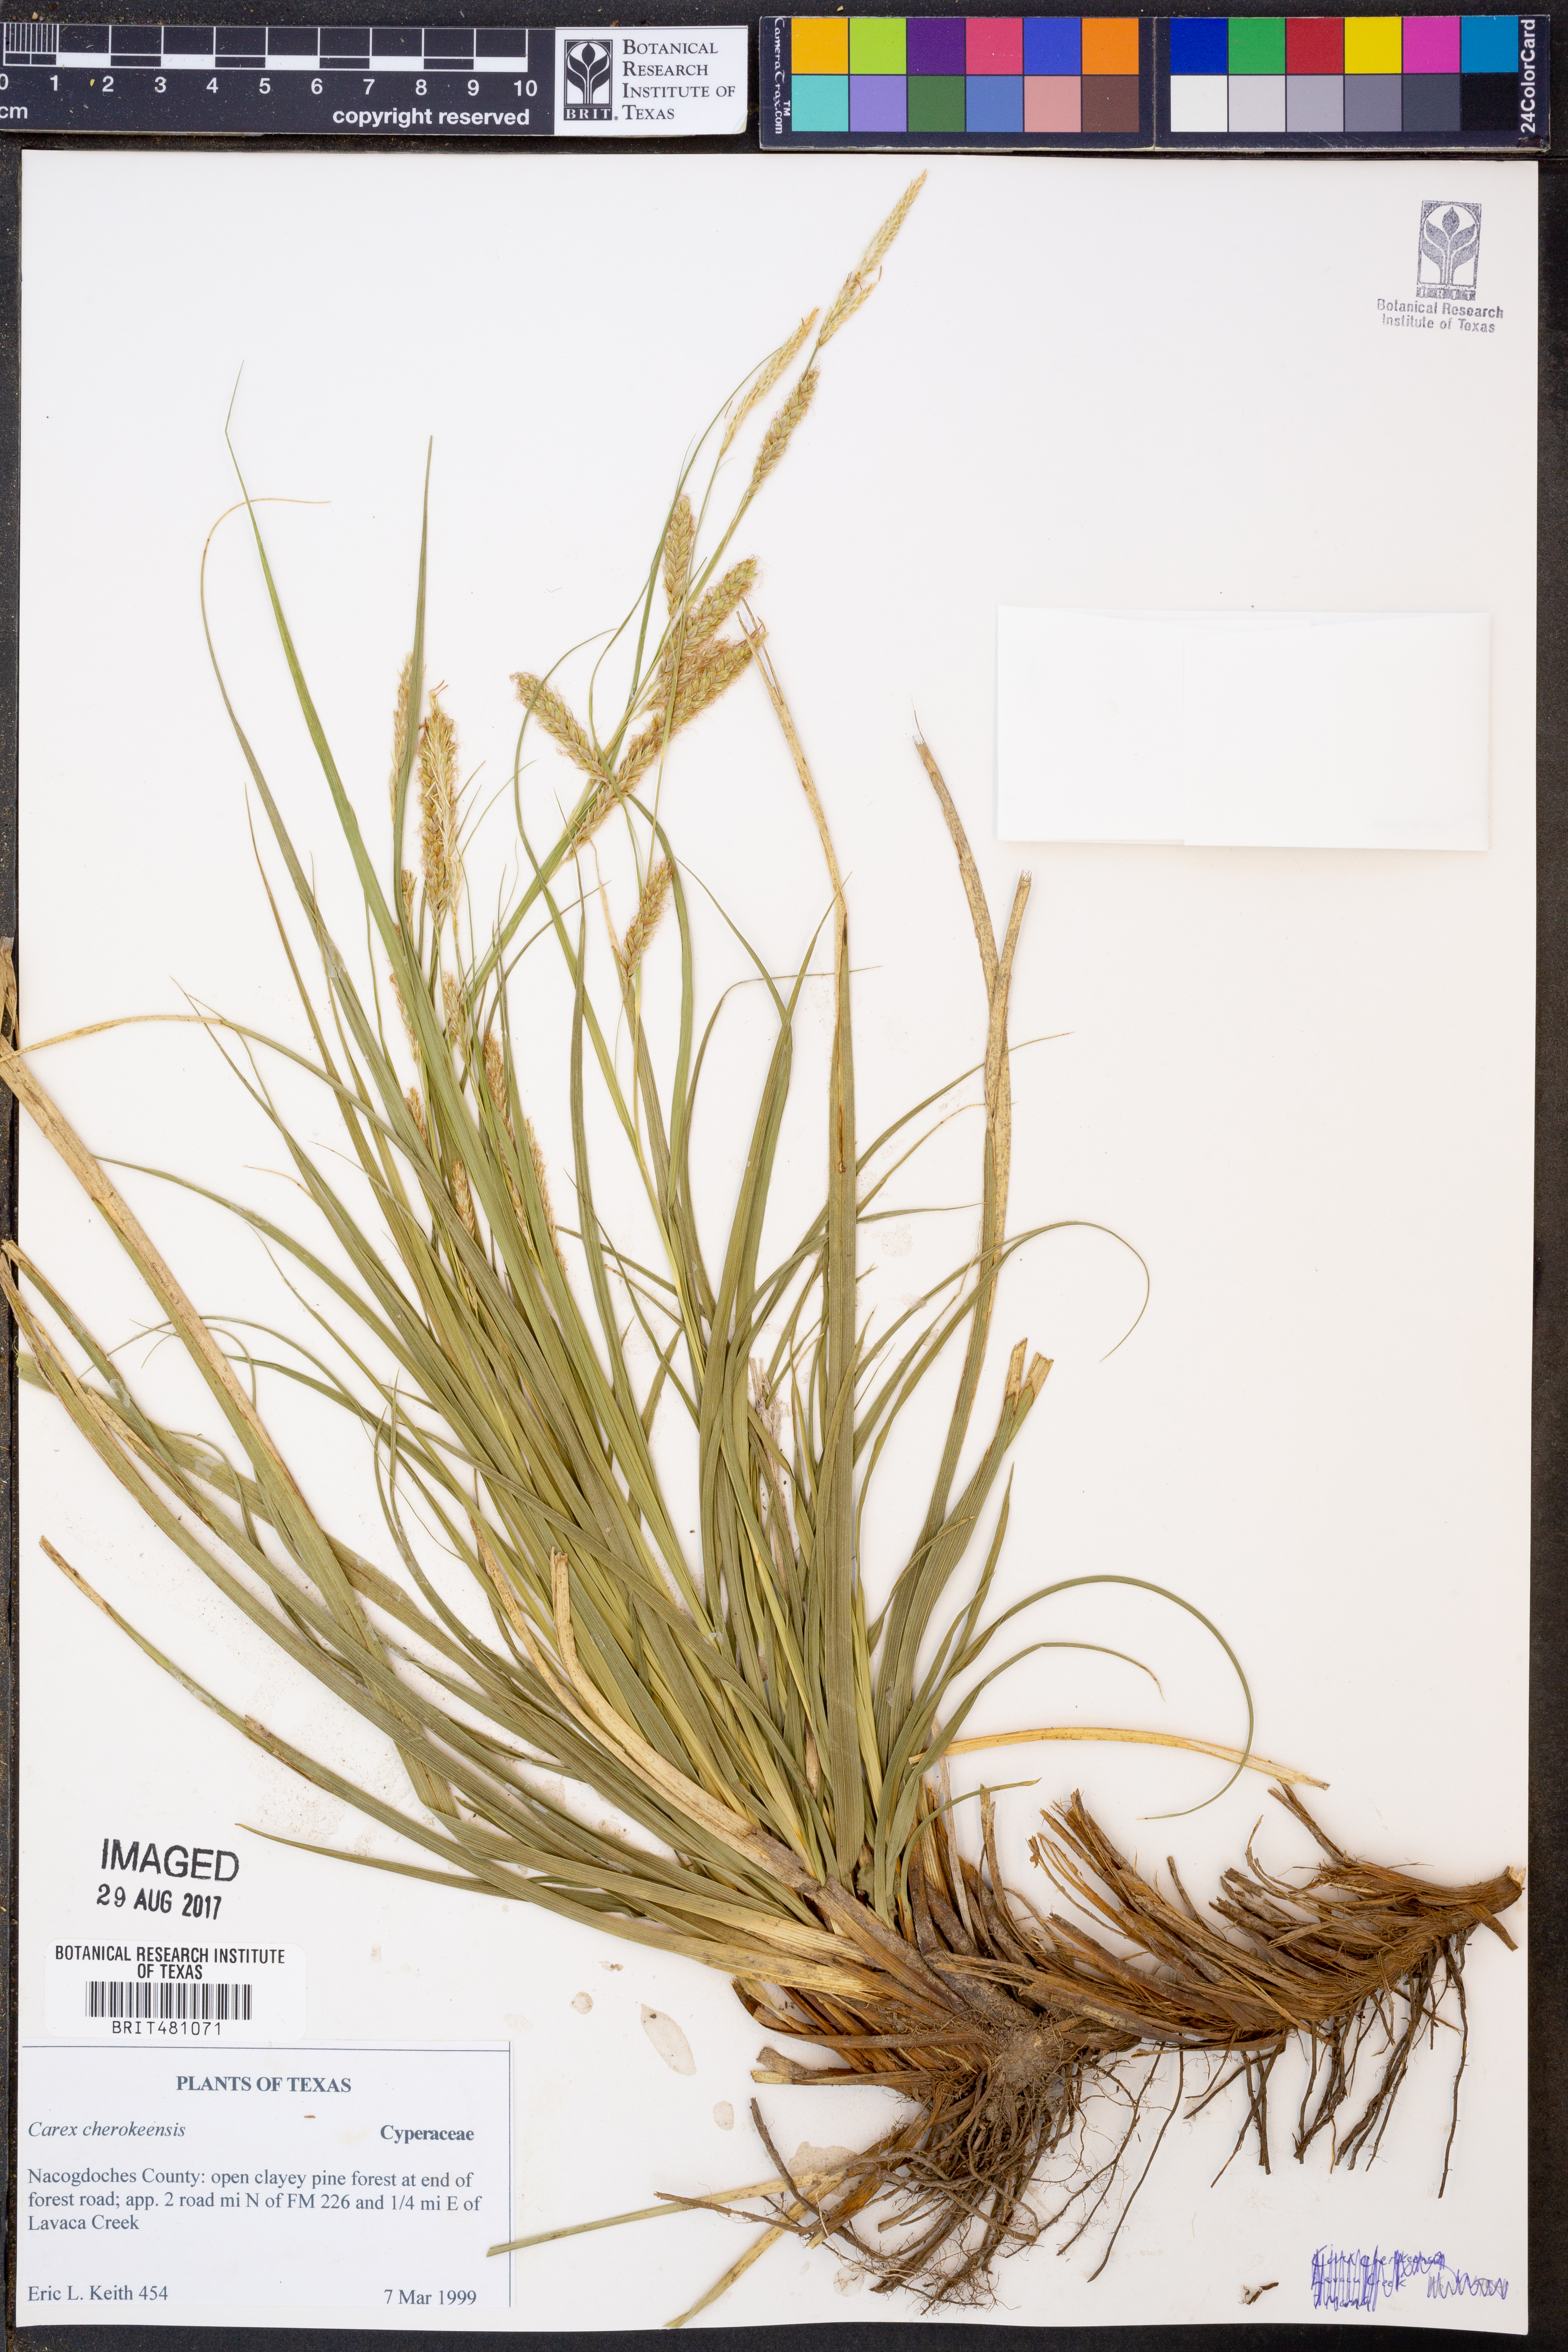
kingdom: Plantae
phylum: Tracheophyta
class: Liliopsida
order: Poales
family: Cyperaceae
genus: Carex
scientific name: Carex cherokeensis
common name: Cherokee sedge
